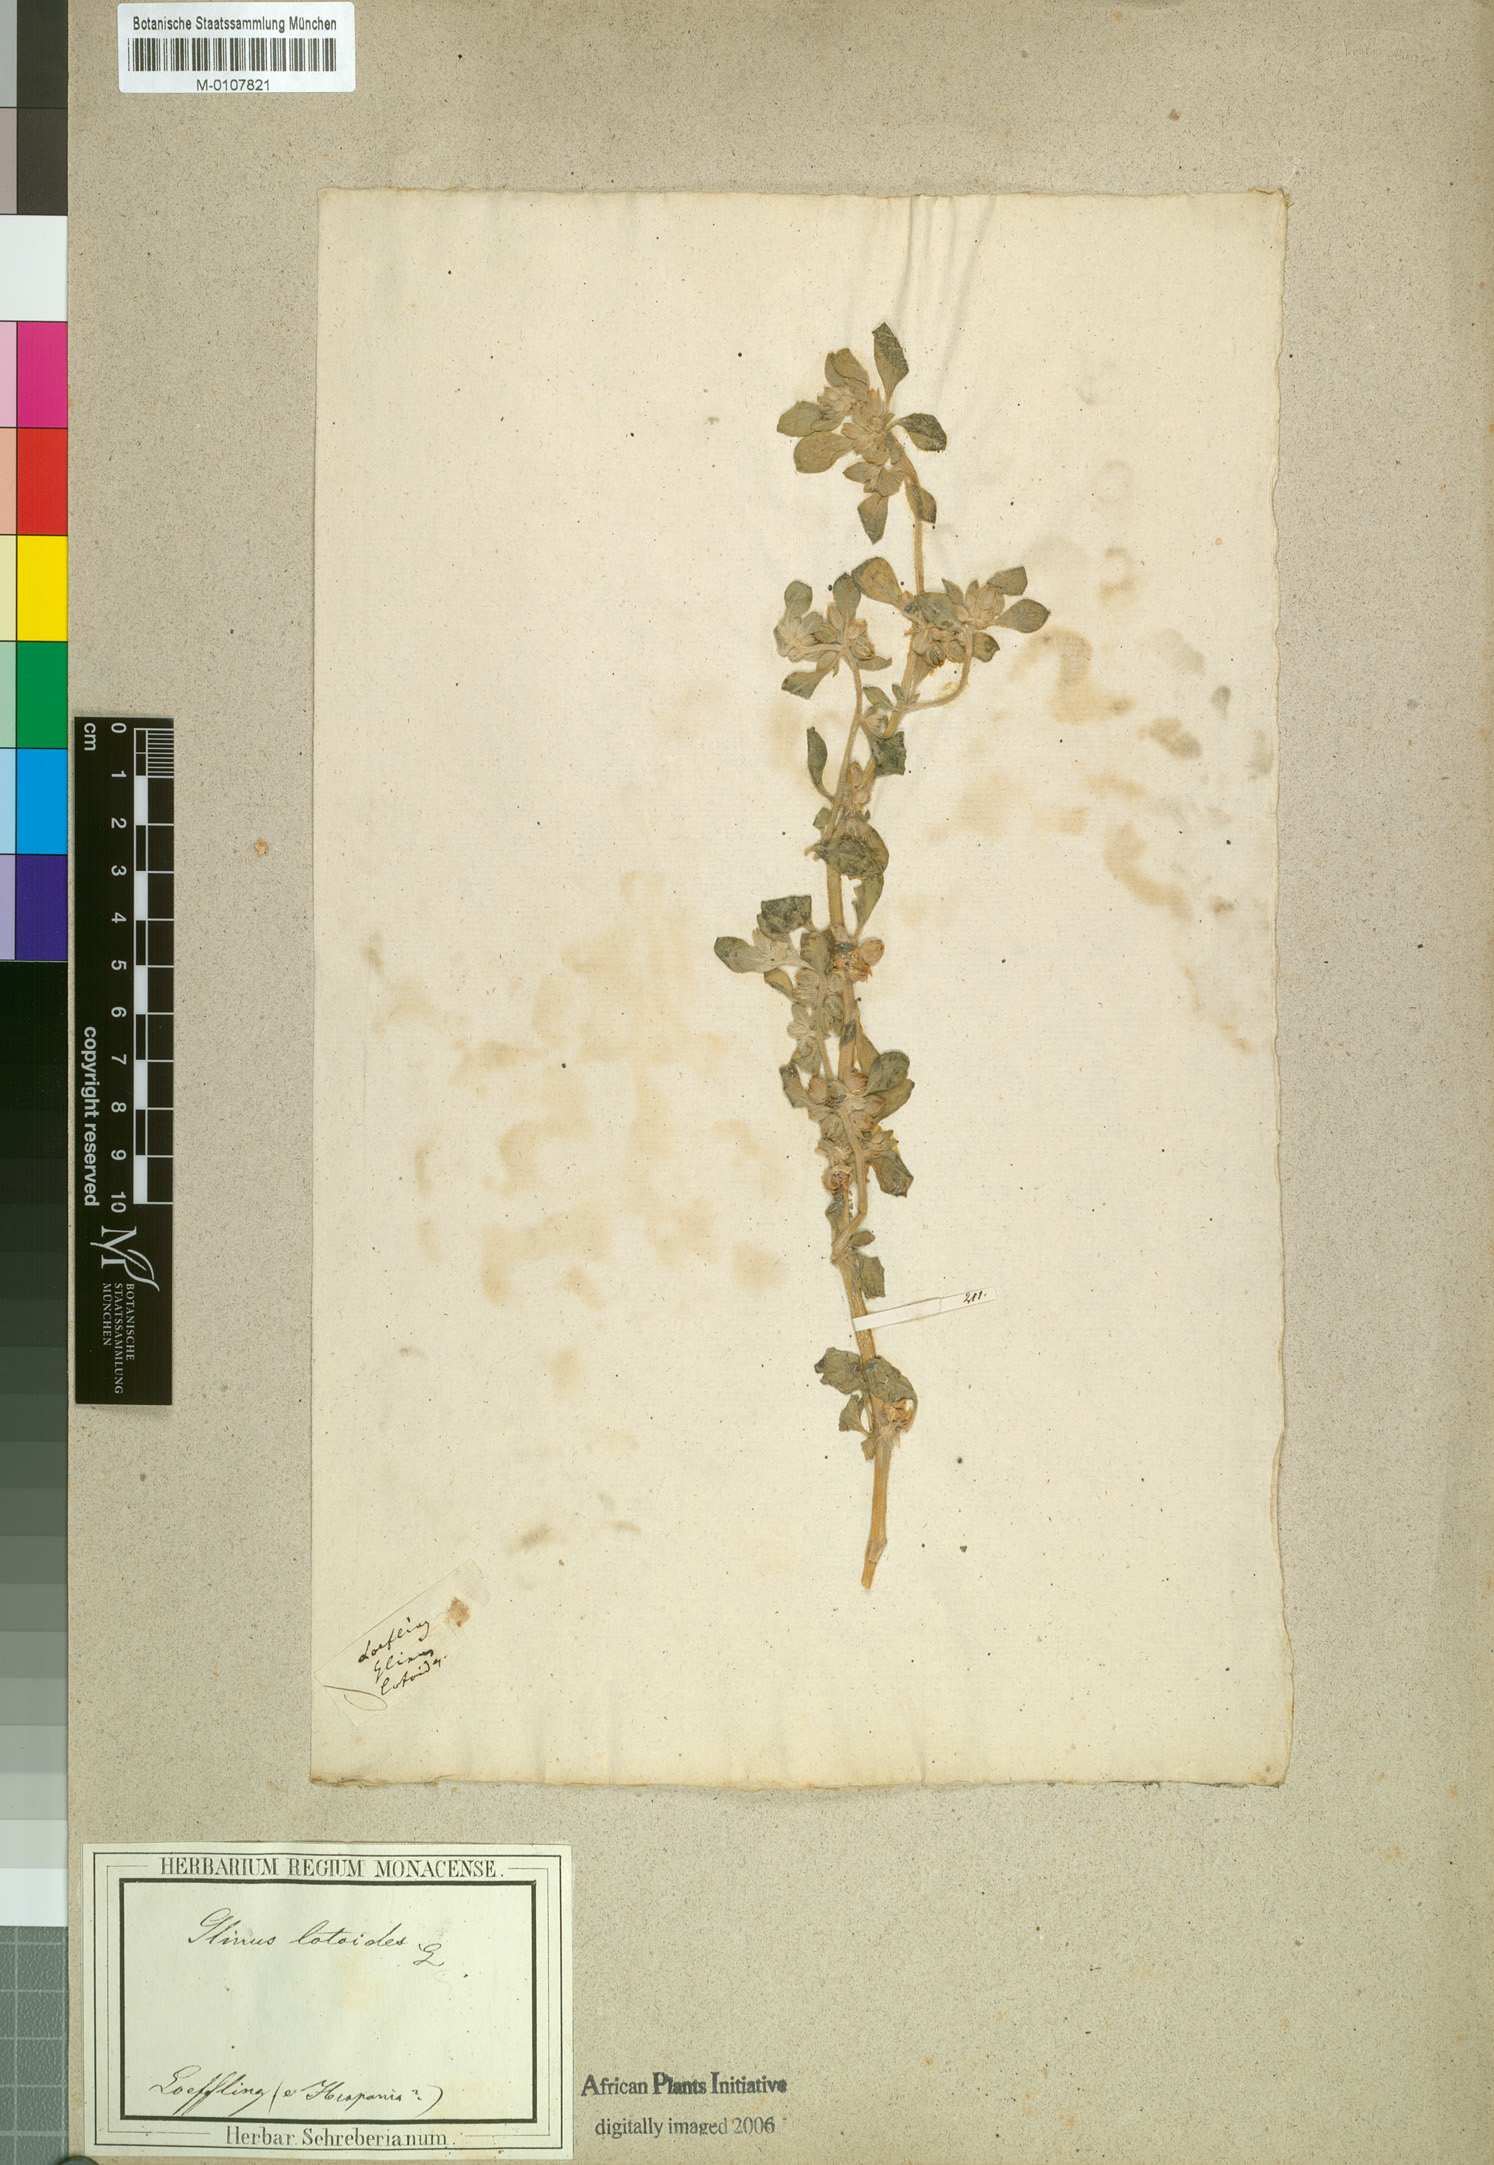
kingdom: Plantae
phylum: Tracheophyta
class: Magnoliopsida
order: Caryophyllales
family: Molluginaceae
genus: Glinus
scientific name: Glinus lotoides
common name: Lotus sweetjuice
